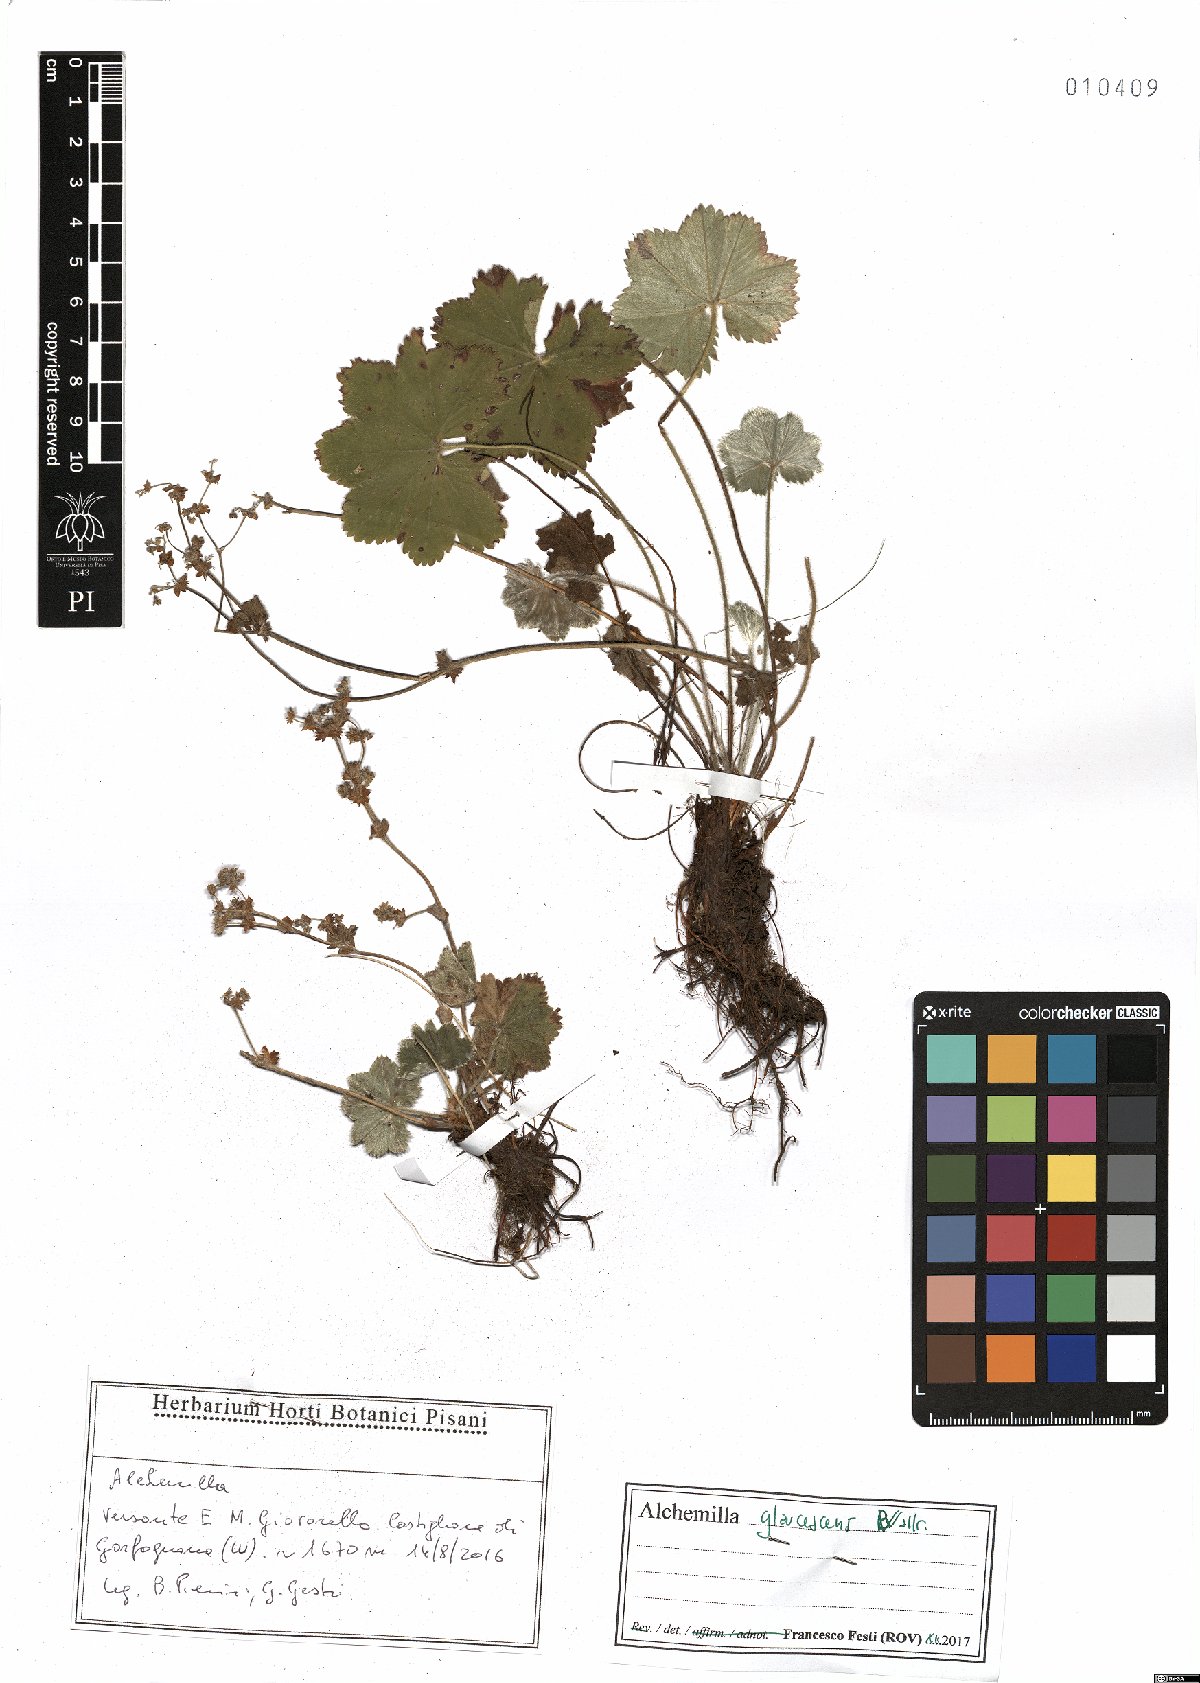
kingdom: Plantae
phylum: Tracheophyta
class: Magnoliopsida
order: Rosales
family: Rosaceae
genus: Alchemilla
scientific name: Alchemilla glaucescens
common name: Silky lady's mantle
